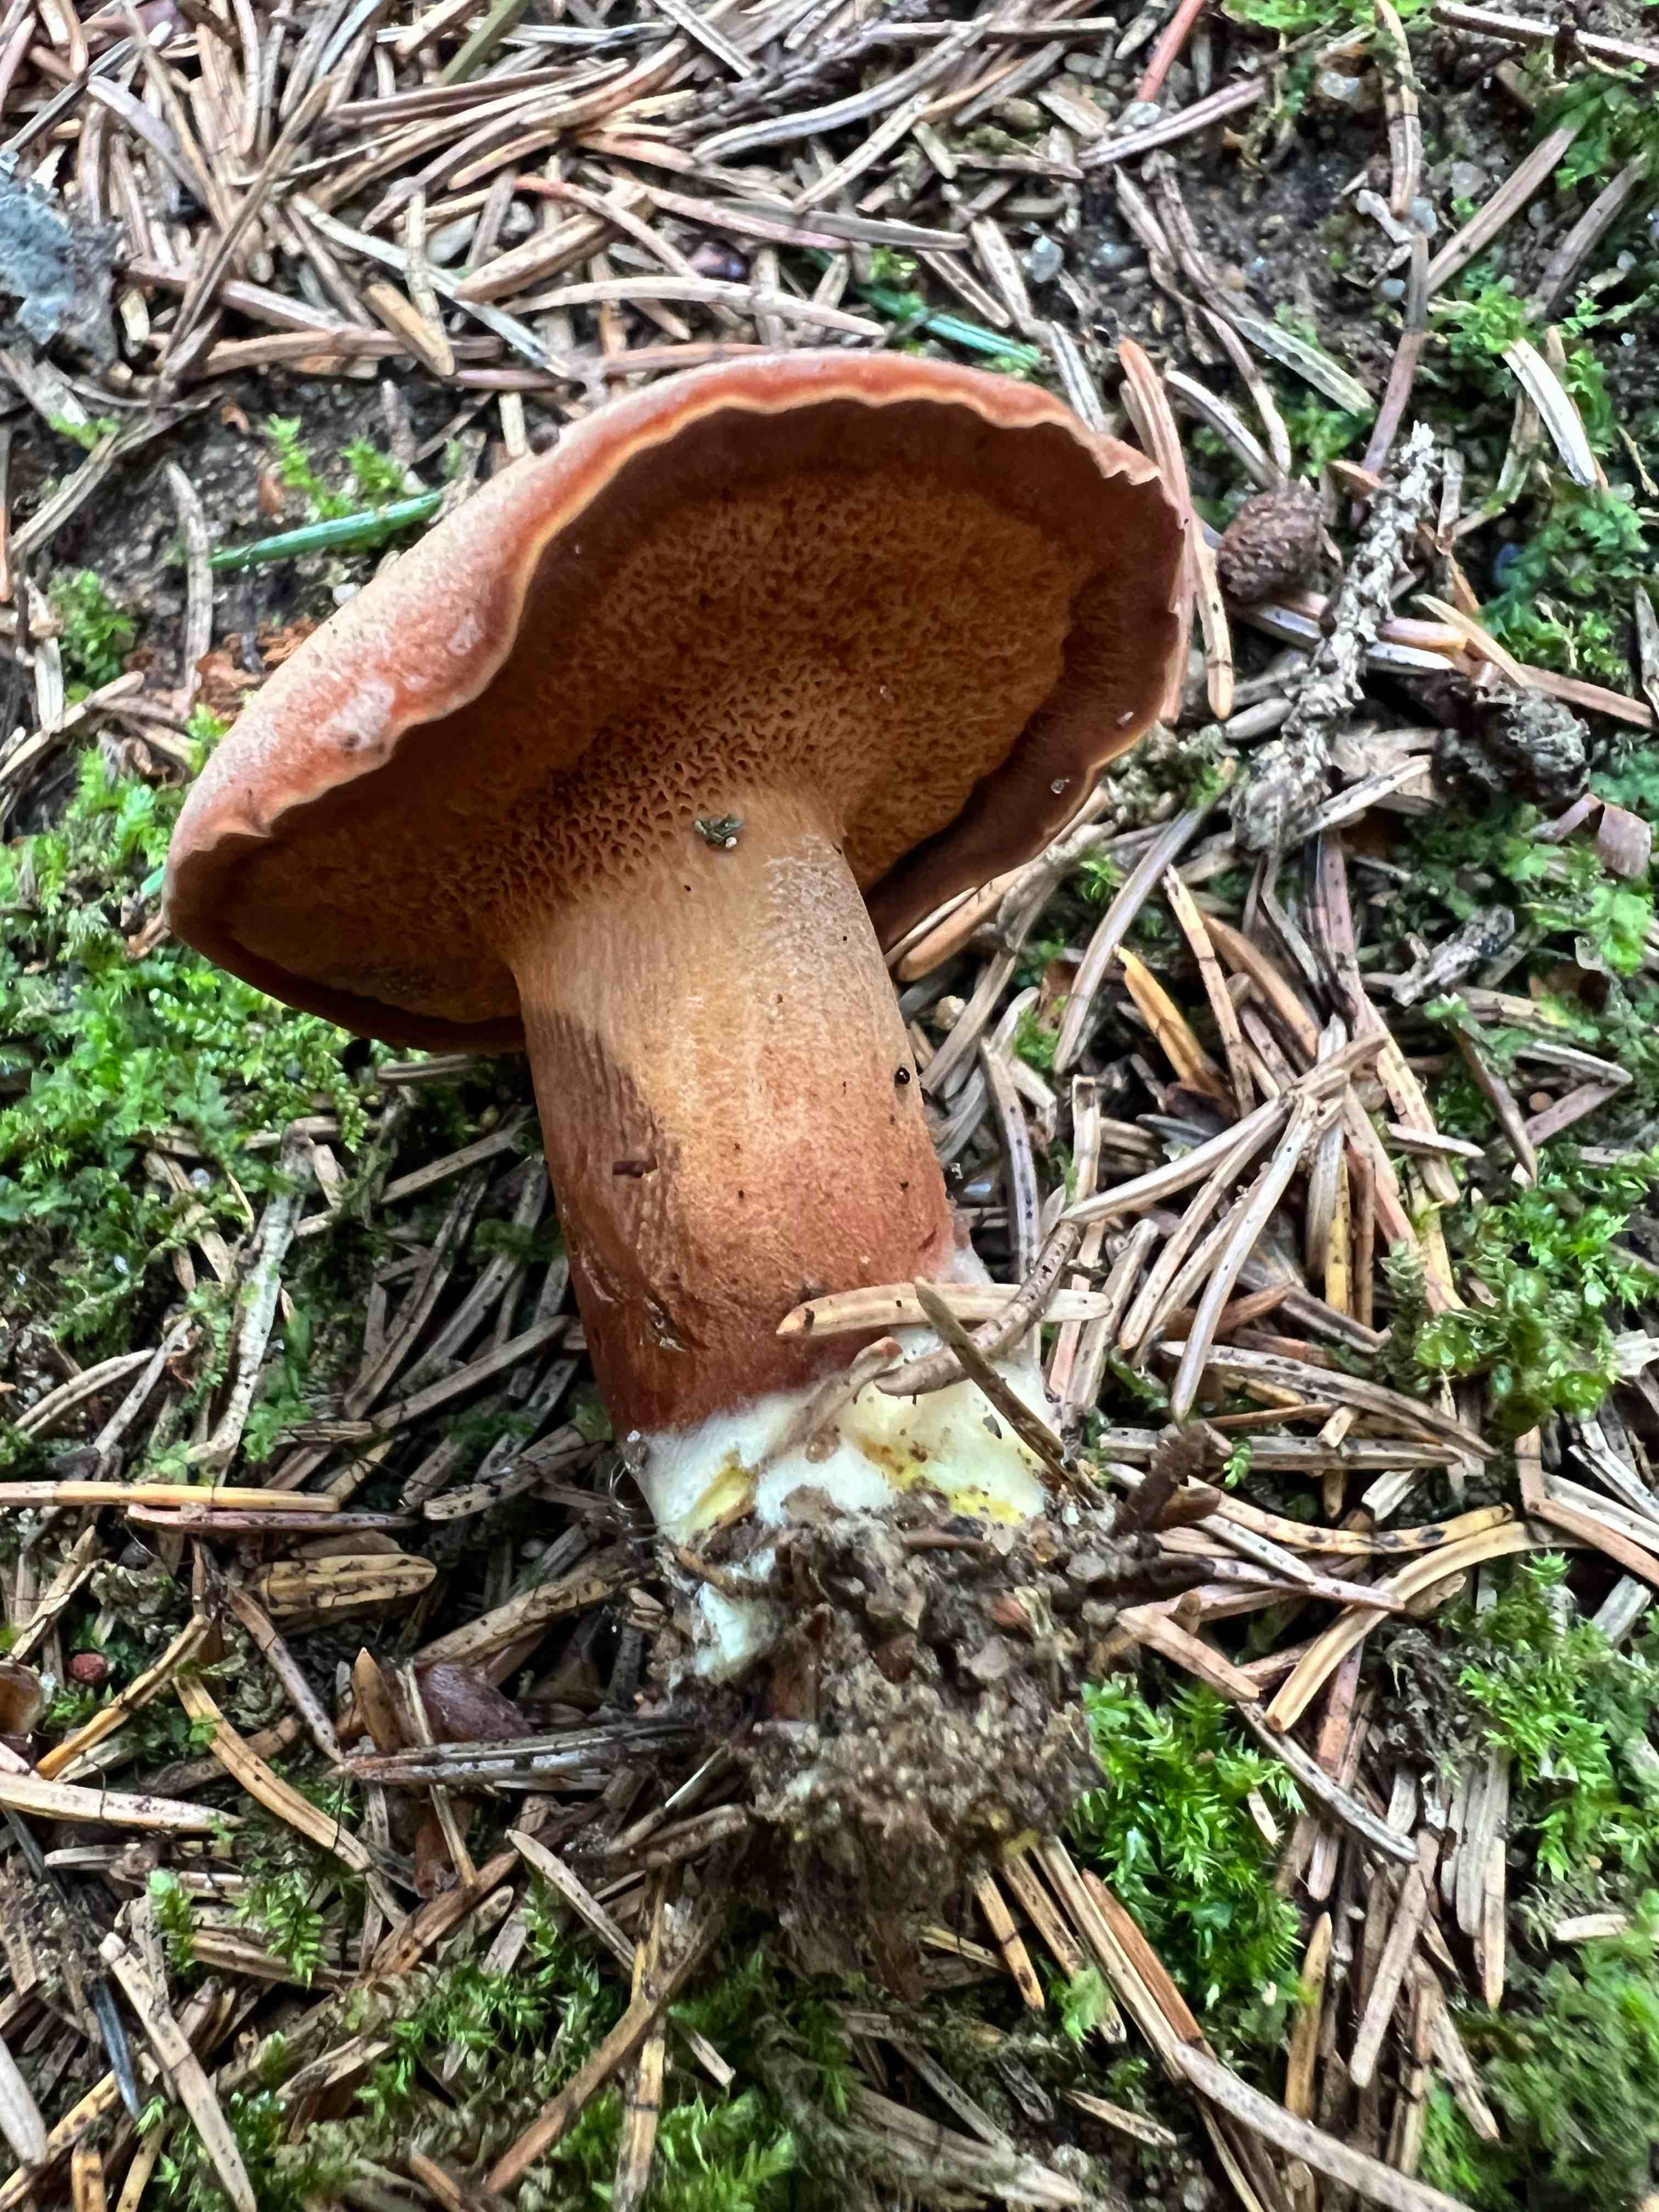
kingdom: Fungi
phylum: Basidiomycota
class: Agaricomycetes
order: Boletales
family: Boletaceae
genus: Chalciporus
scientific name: Chalciporus piperatus
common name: peberrørhat
